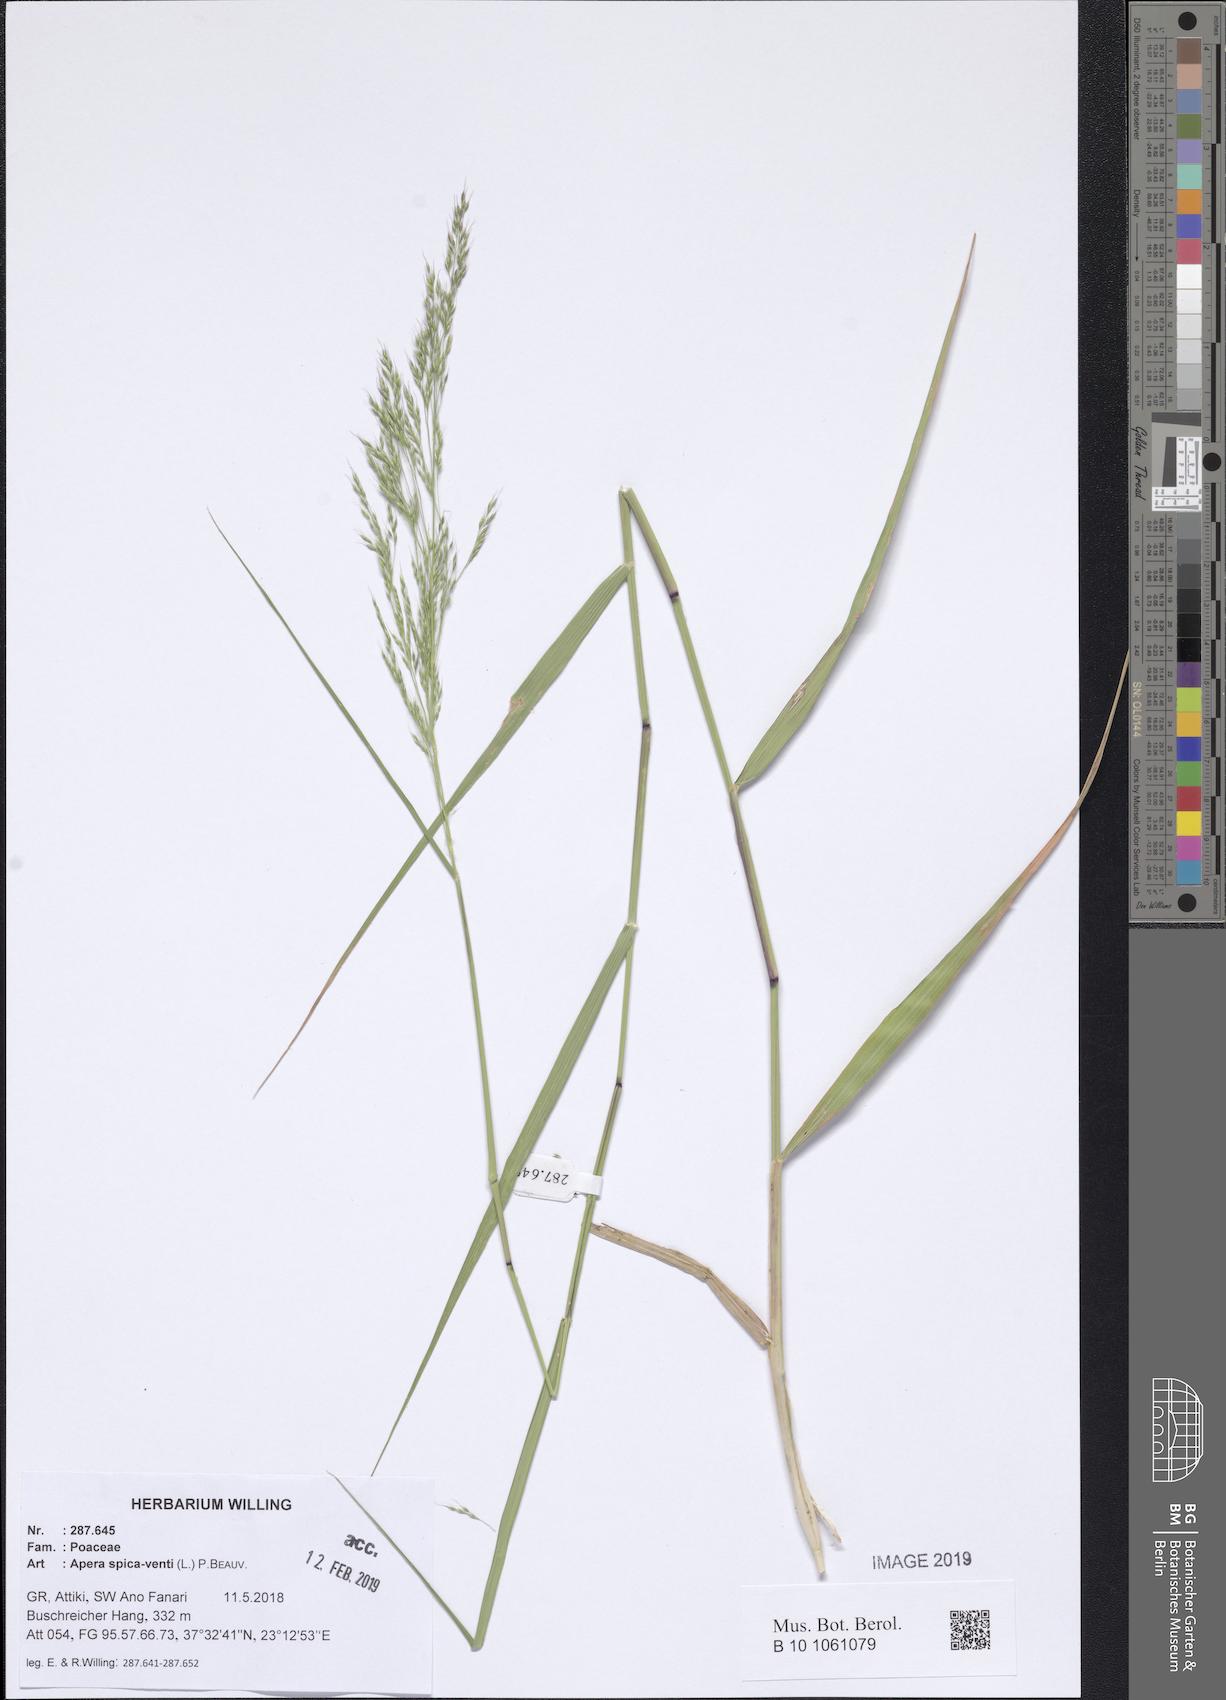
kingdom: Plantae
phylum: Tracheophyta
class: Liliopsida
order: Poales
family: Poaceae
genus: Apera
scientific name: Apera spica-venti
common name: Loose silky-bent
